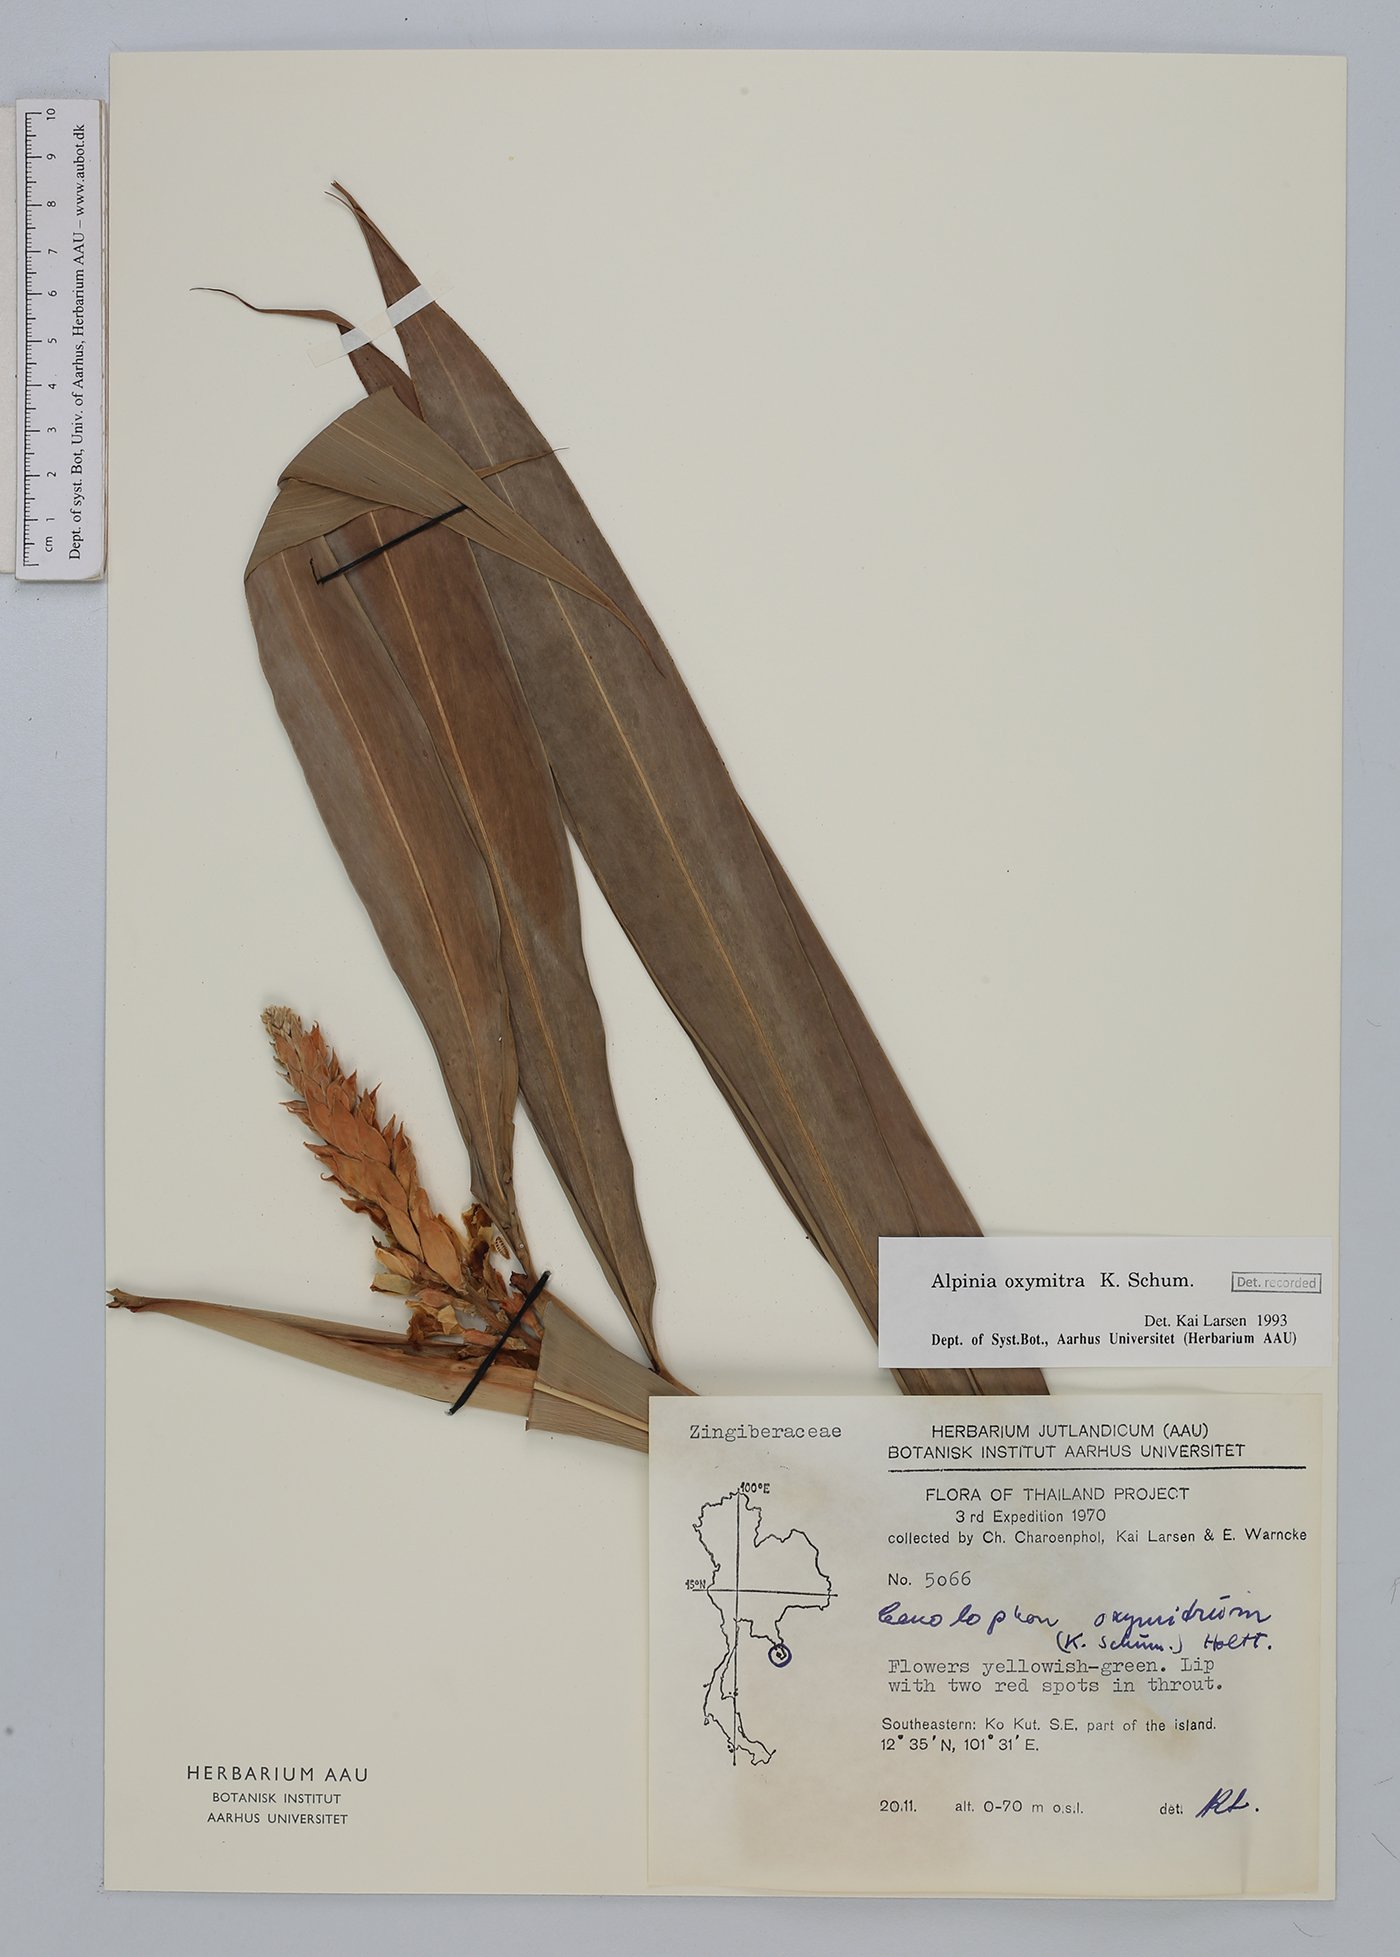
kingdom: Plantae
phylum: Tracheophyta
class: Liliopsida
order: Zingiberales
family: Zingiberaceae
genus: Alpinia
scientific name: Alpinia oxymitra
